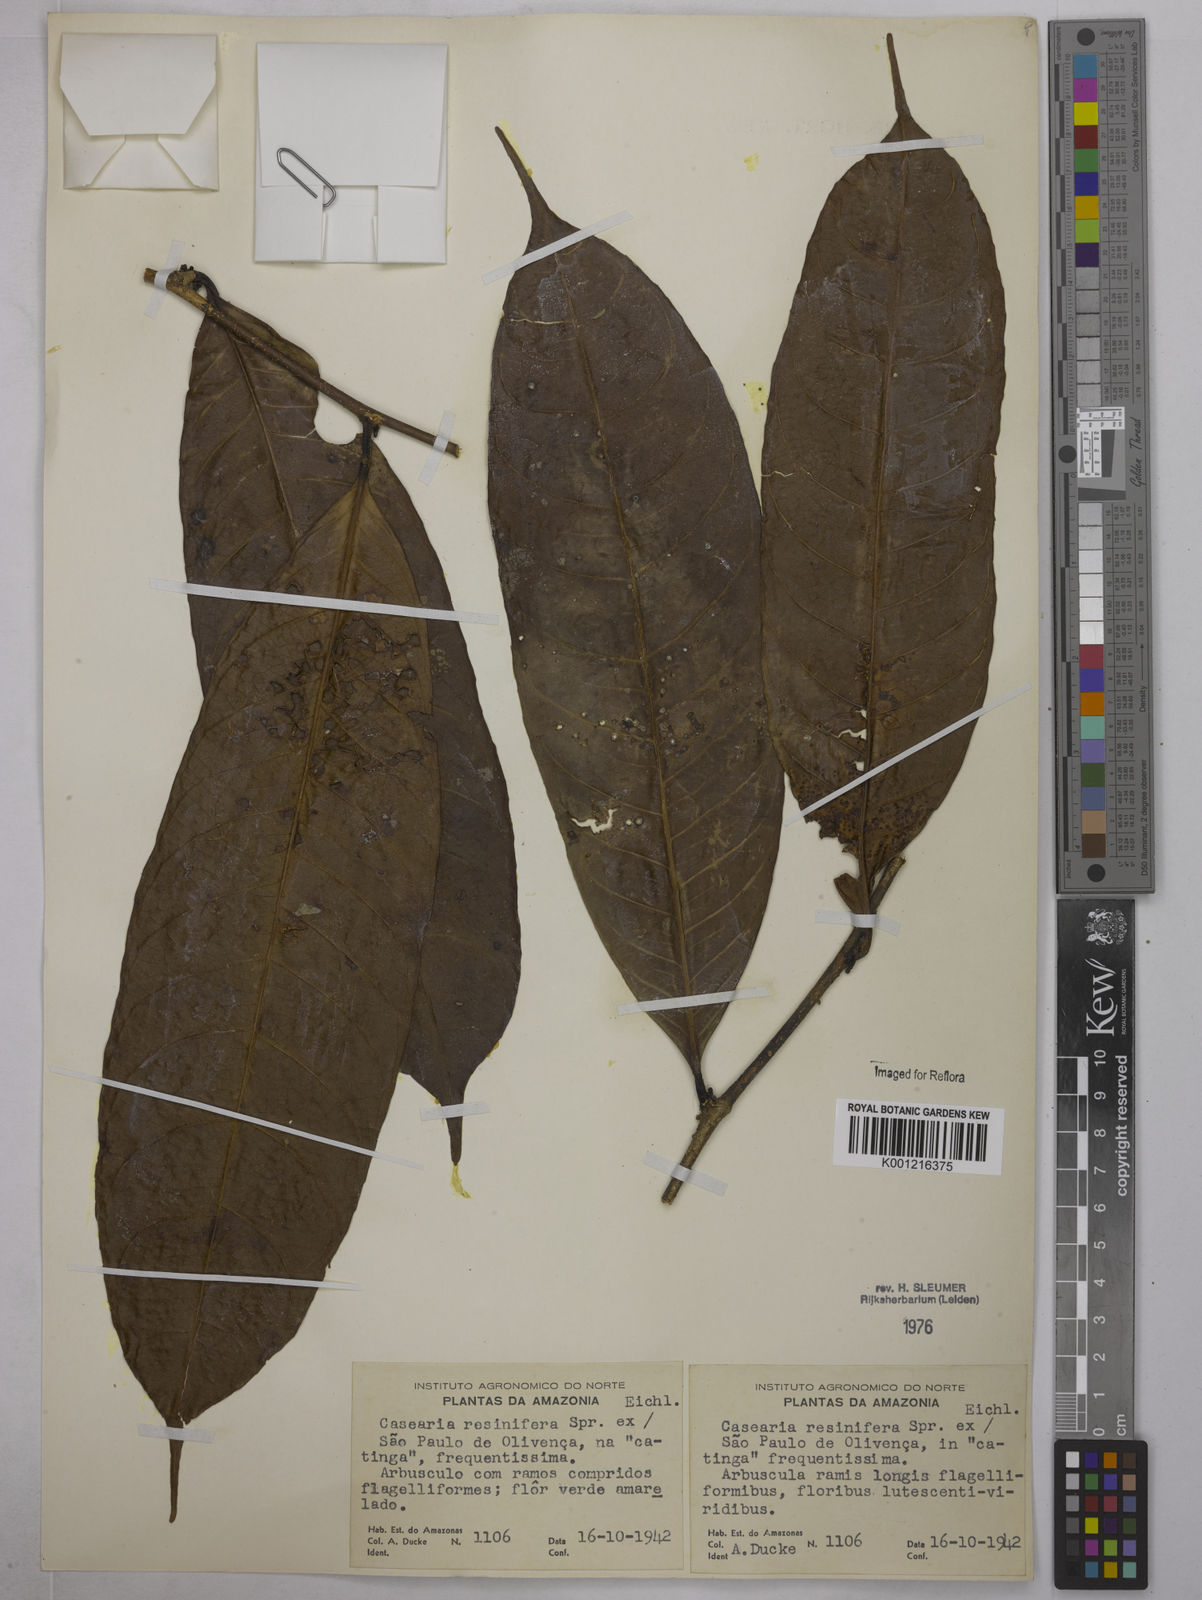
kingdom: Plantae
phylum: Tracheophyta
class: Magnoliopsida
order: Malpighiales
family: Salicaceae
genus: Casearia
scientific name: Casearia resinifera
